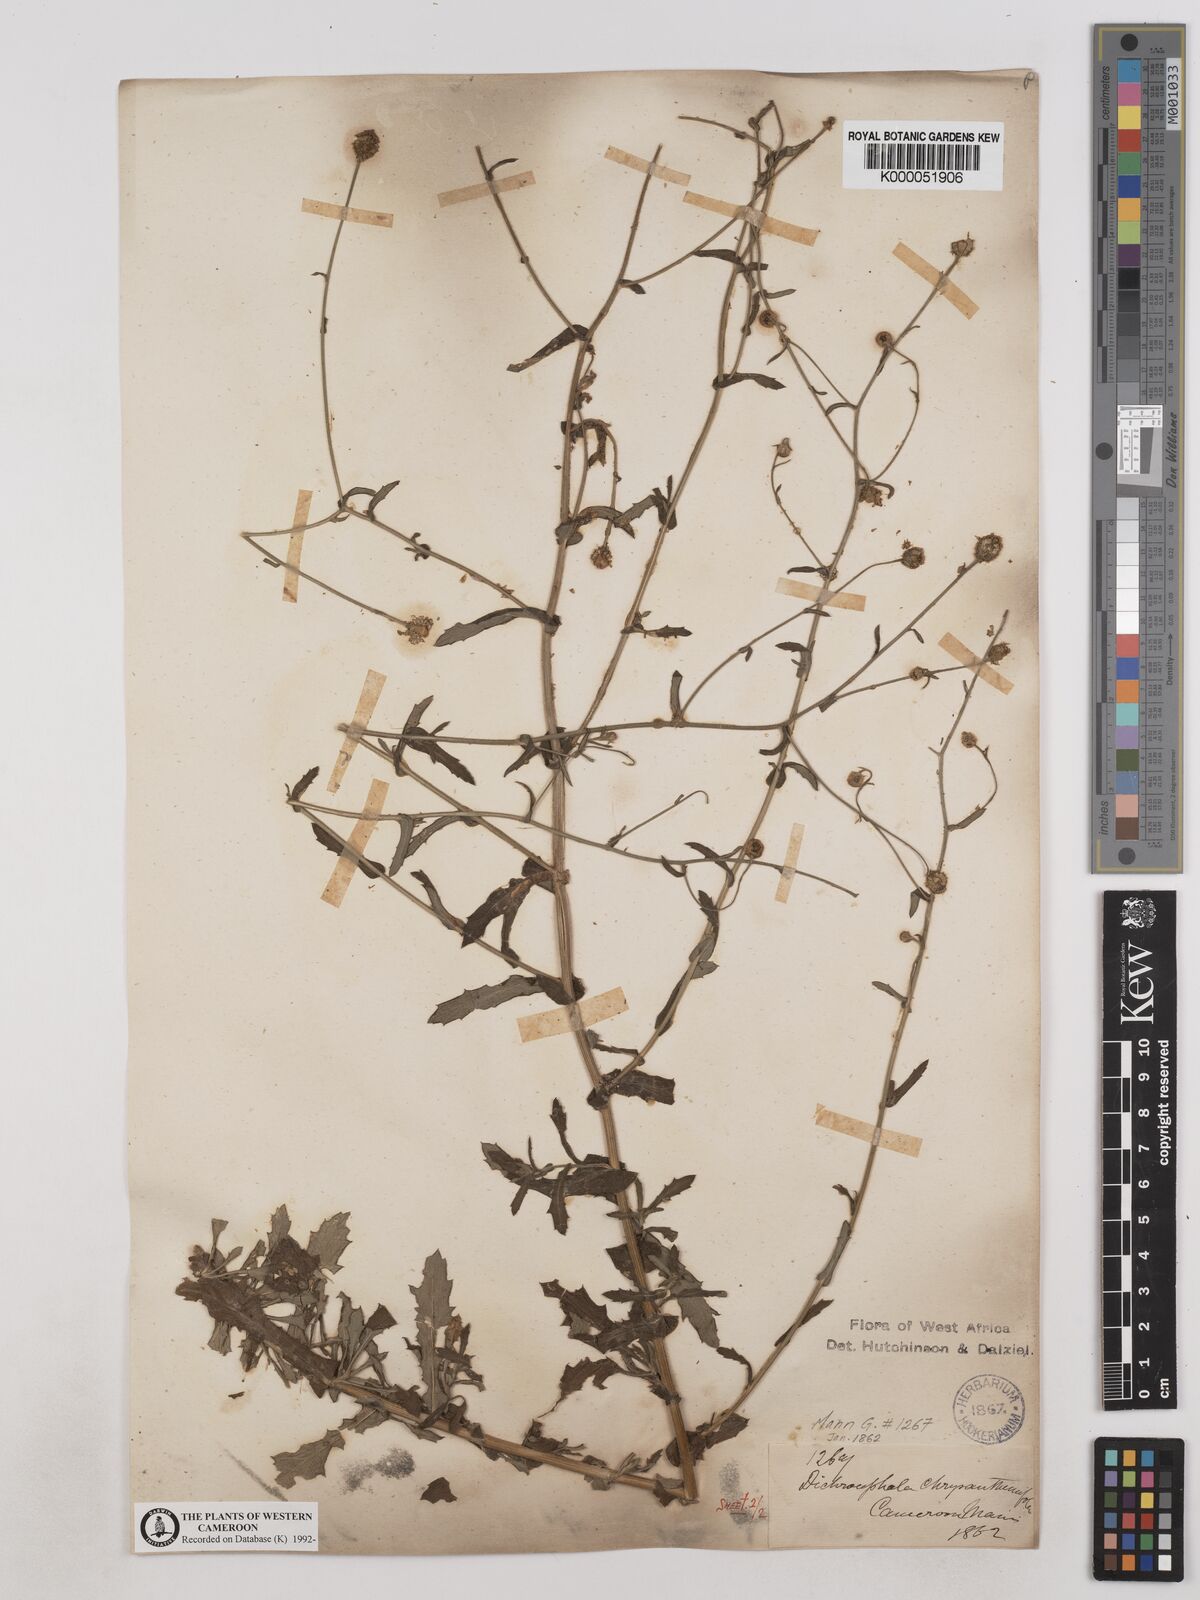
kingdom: Plantae
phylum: Tracheophyta
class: Magnoliopsida
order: Asterales
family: Asteraceae
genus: Dichrocephala
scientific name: Dichrocephala chrysanthemifolia
